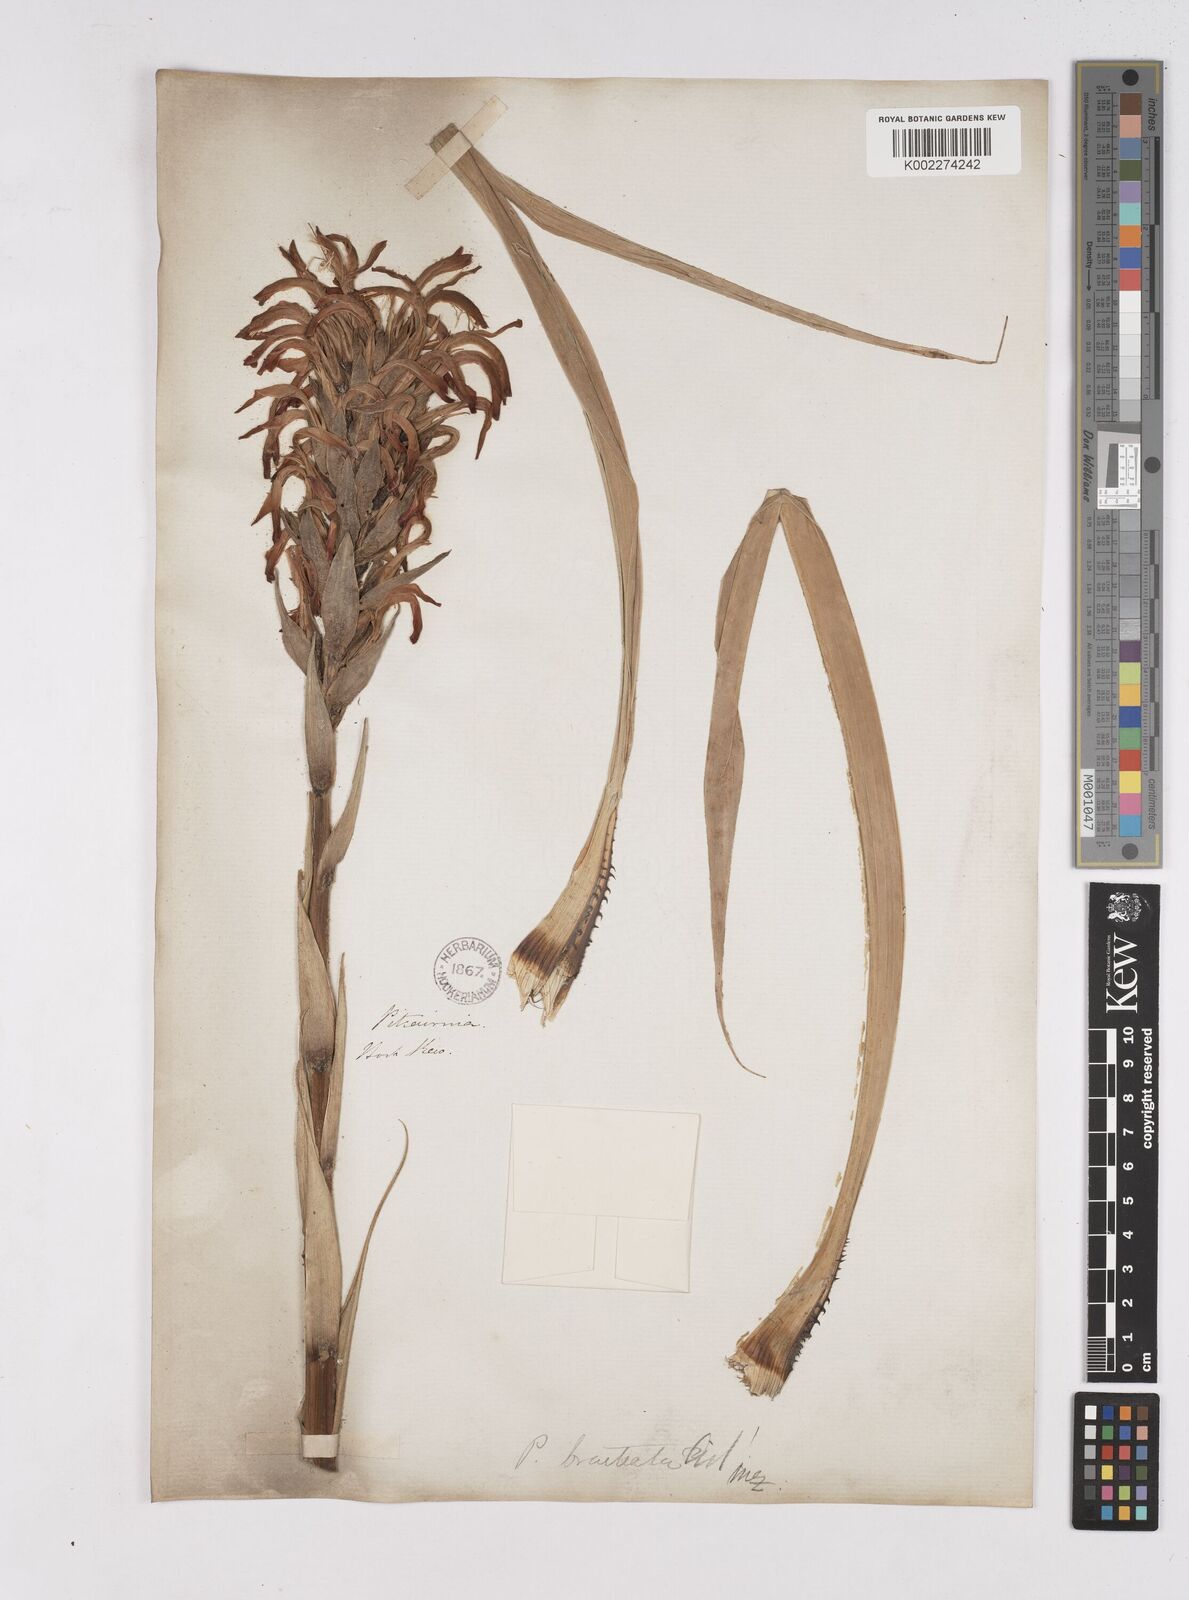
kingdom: Plantae
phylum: Tracheophyta
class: Liliopsida
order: Poales
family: Bromeliaceae
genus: Pitcairnia
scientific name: Pitcairnia spicata
